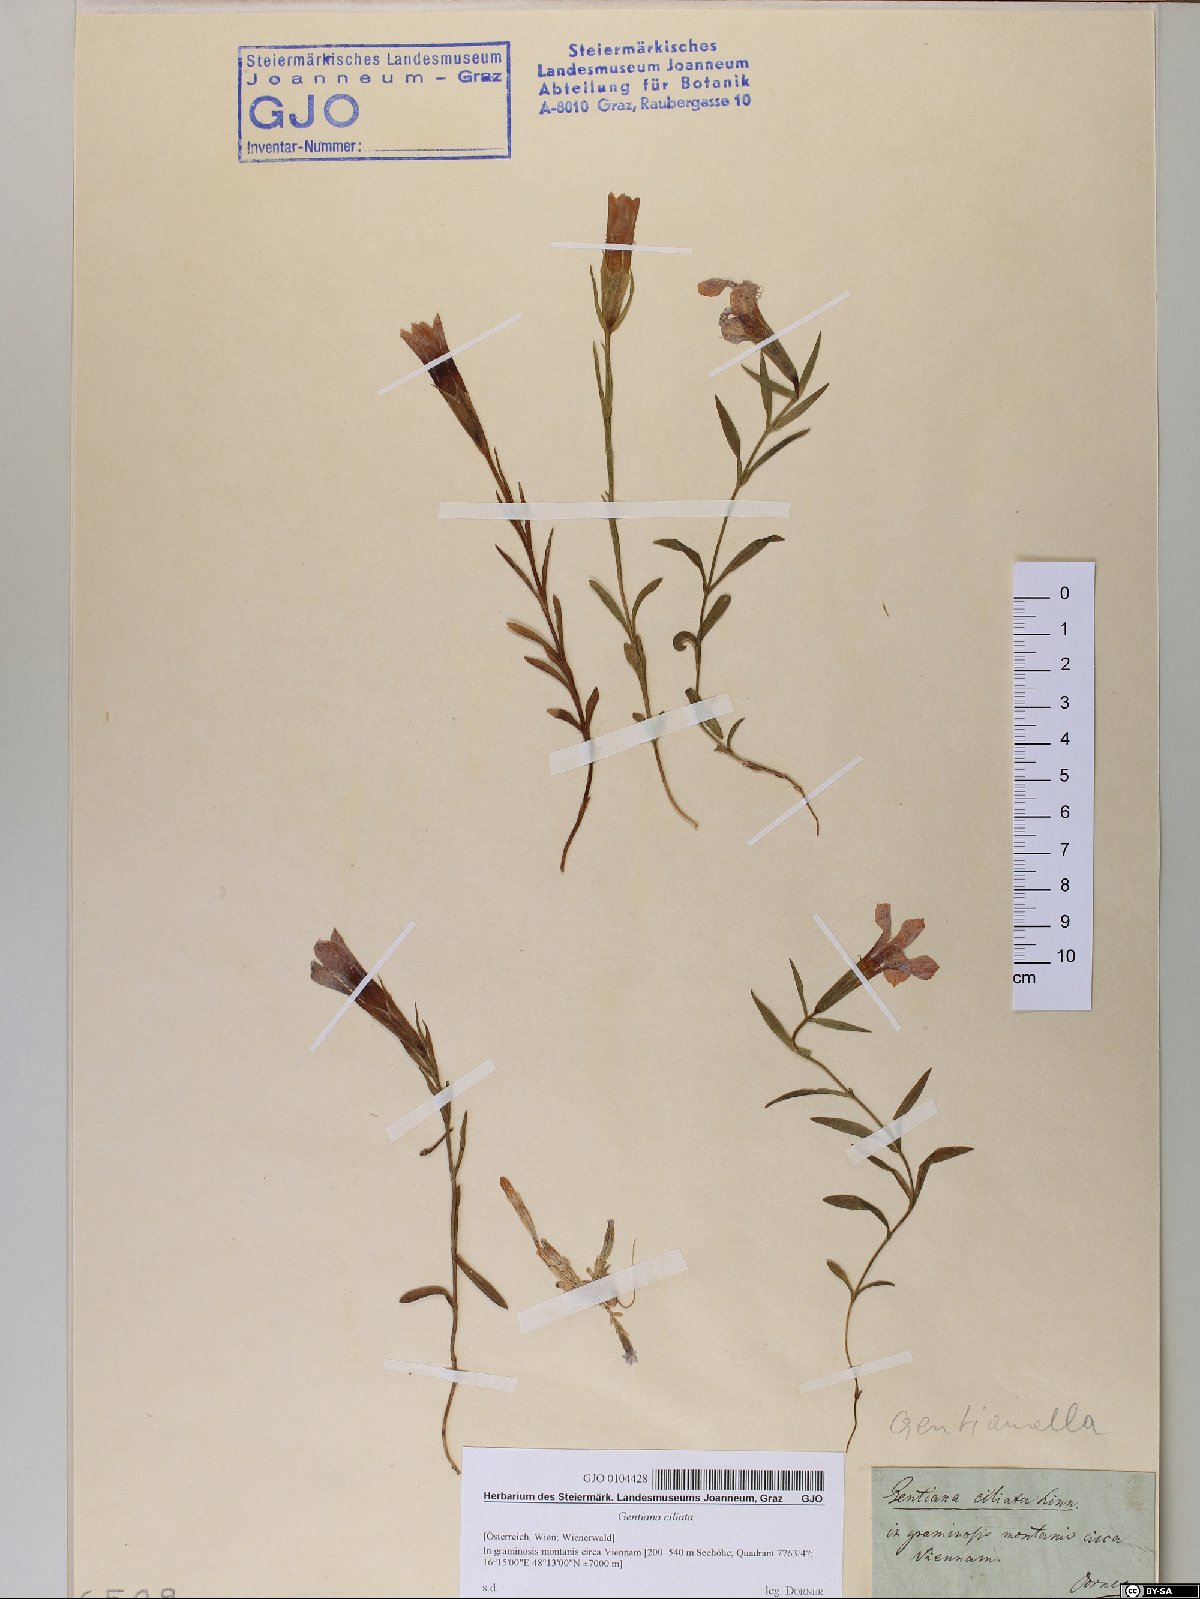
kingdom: Plantae
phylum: Tracheophyta
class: Magnoliopsida
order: Gentianales
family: Gentianaceae
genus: Gentianopsis
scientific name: Gentianopsis ciliata
